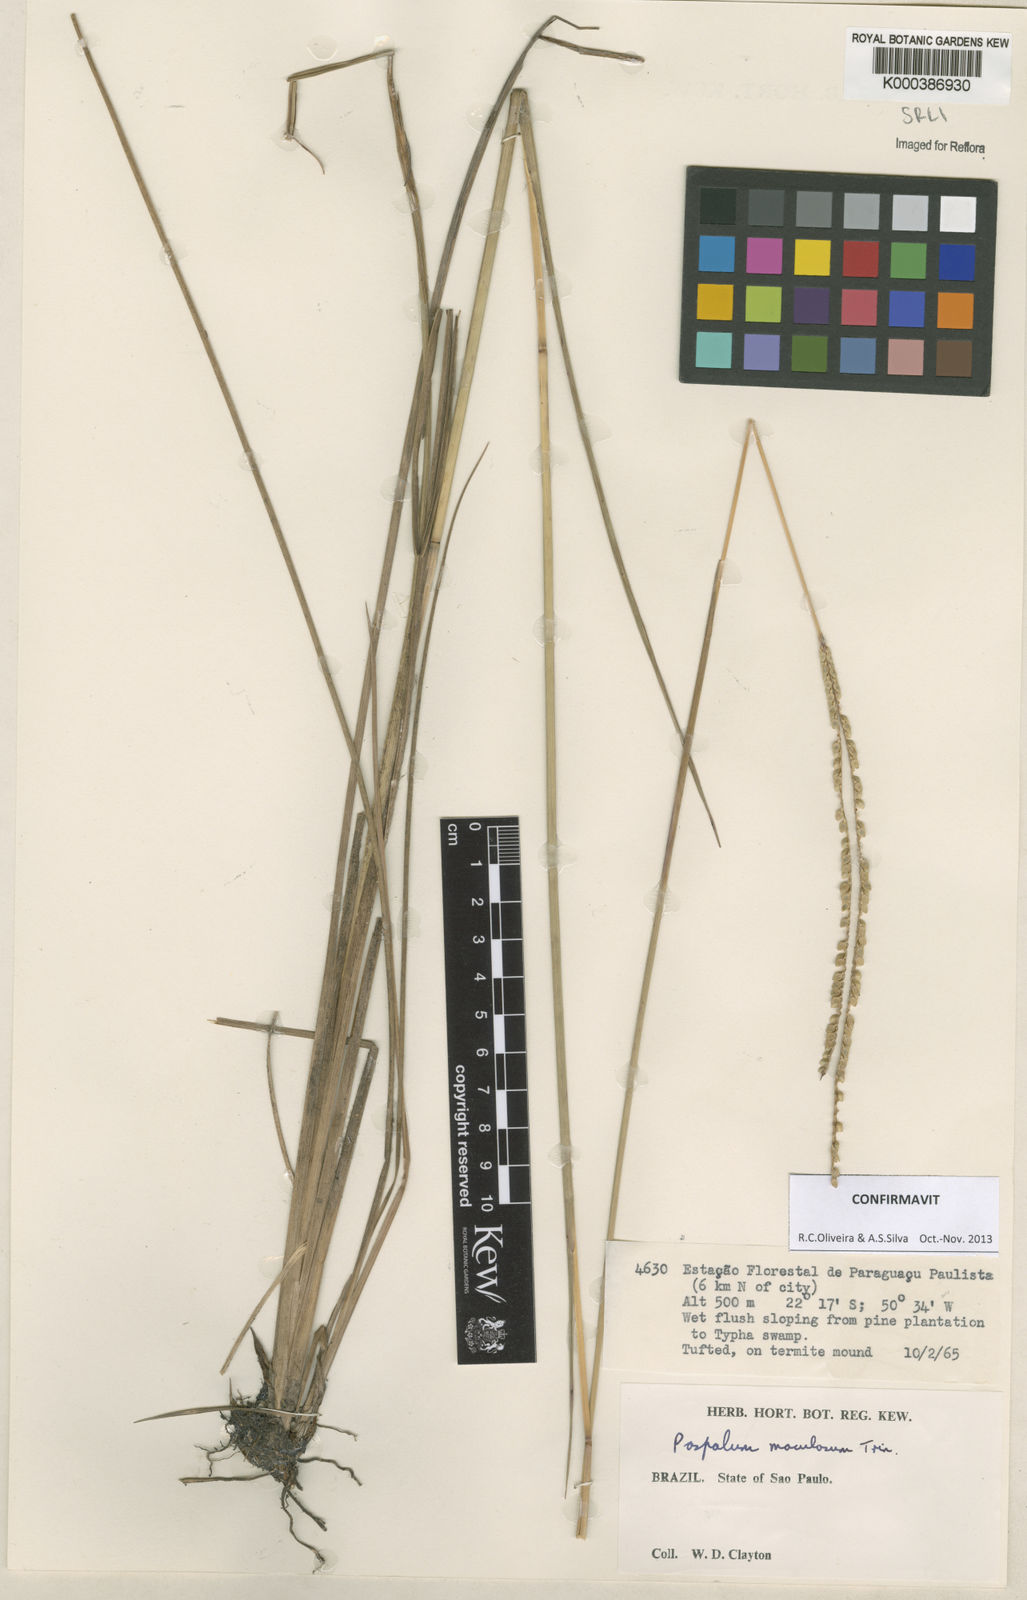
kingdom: Plantae
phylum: Tracheophyta
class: Liliopsida
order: Poales
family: Poaceae
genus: Paspalum
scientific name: Paspalum maculosum
